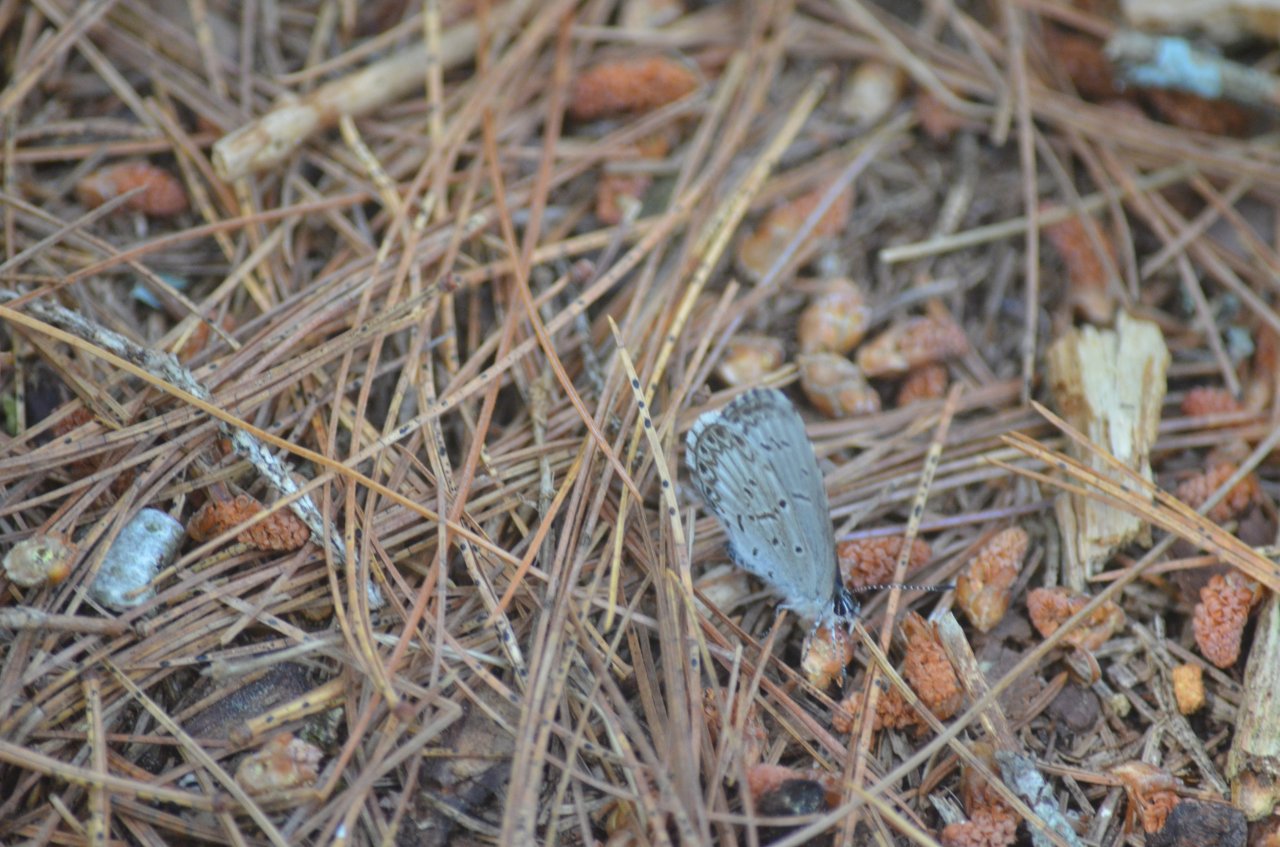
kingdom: Animalia
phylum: Arthropoda
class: Insecta
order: Lepidoptera
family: Lycaenidae
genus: Celastrina
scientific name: Celastrina lucia
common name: Northern Spring Azure
